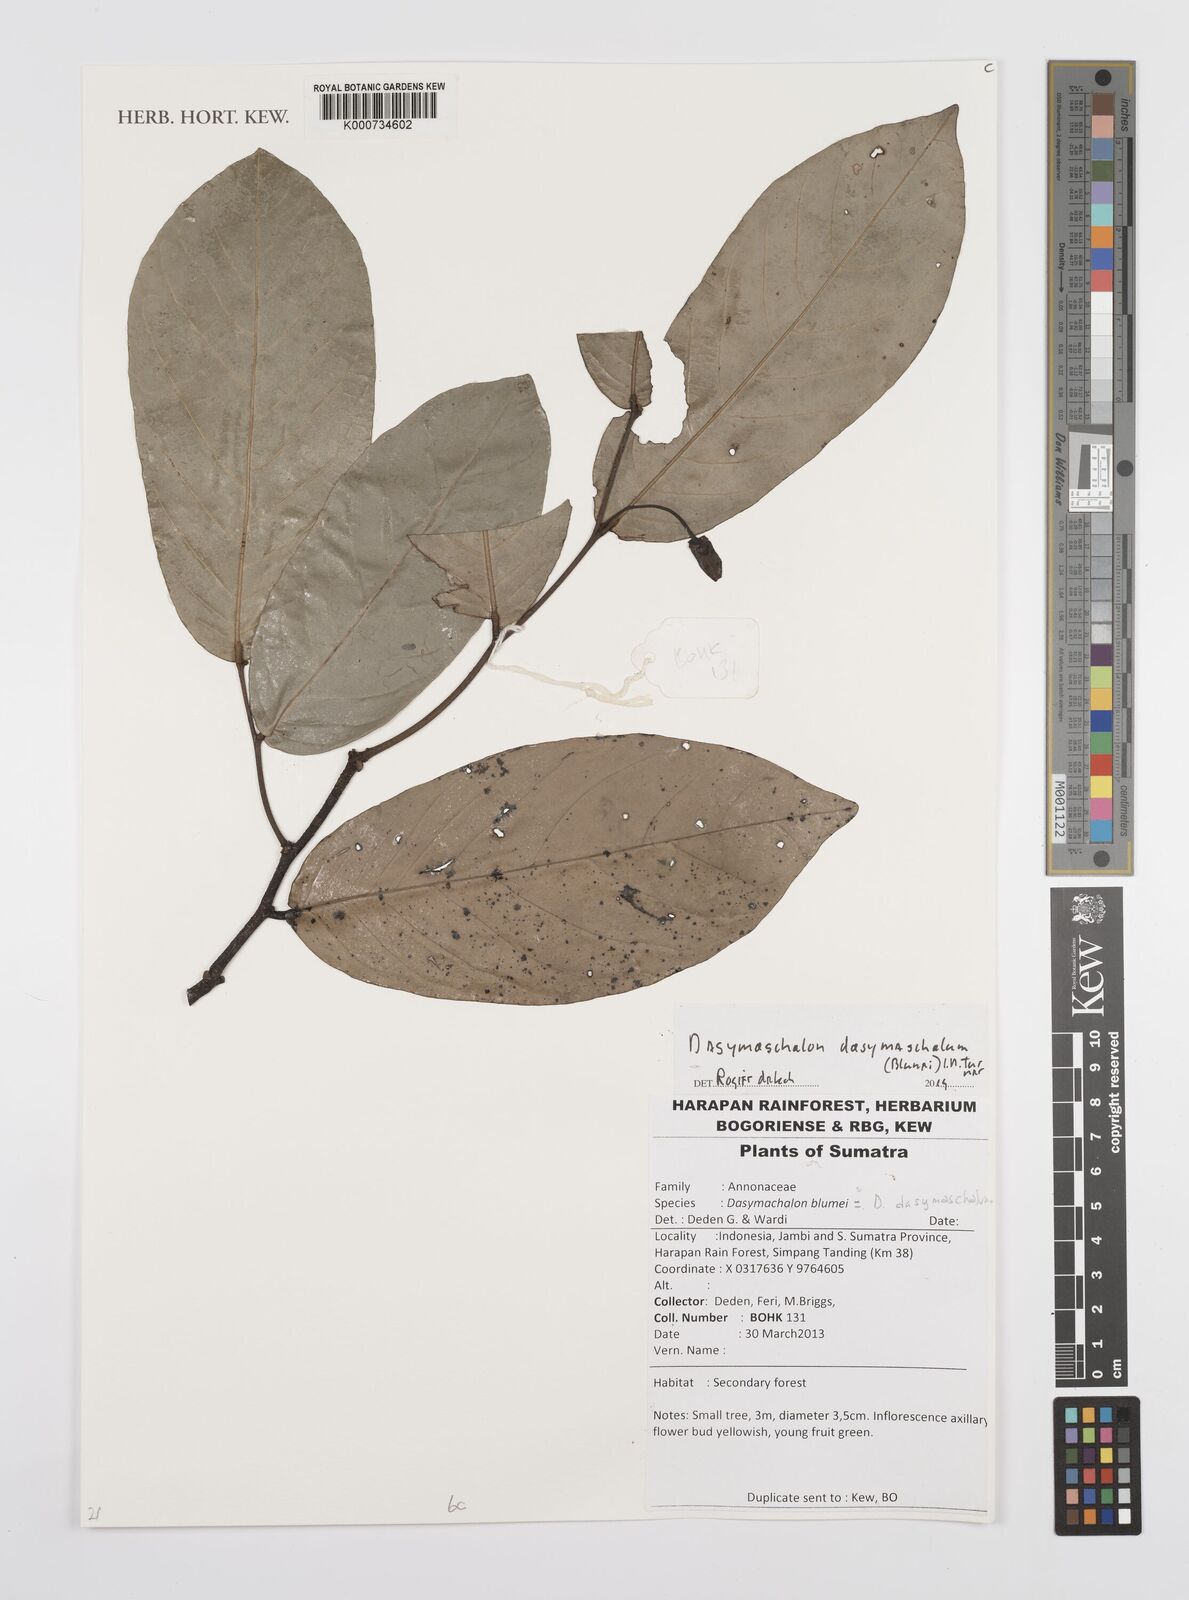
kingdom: Plantae
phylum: Tracheophyta
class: Magnoliopsida
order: Magnoliales
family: Annonaceae
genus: Dasymaschalon
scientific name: Dasymaschalon dasymaschalum
